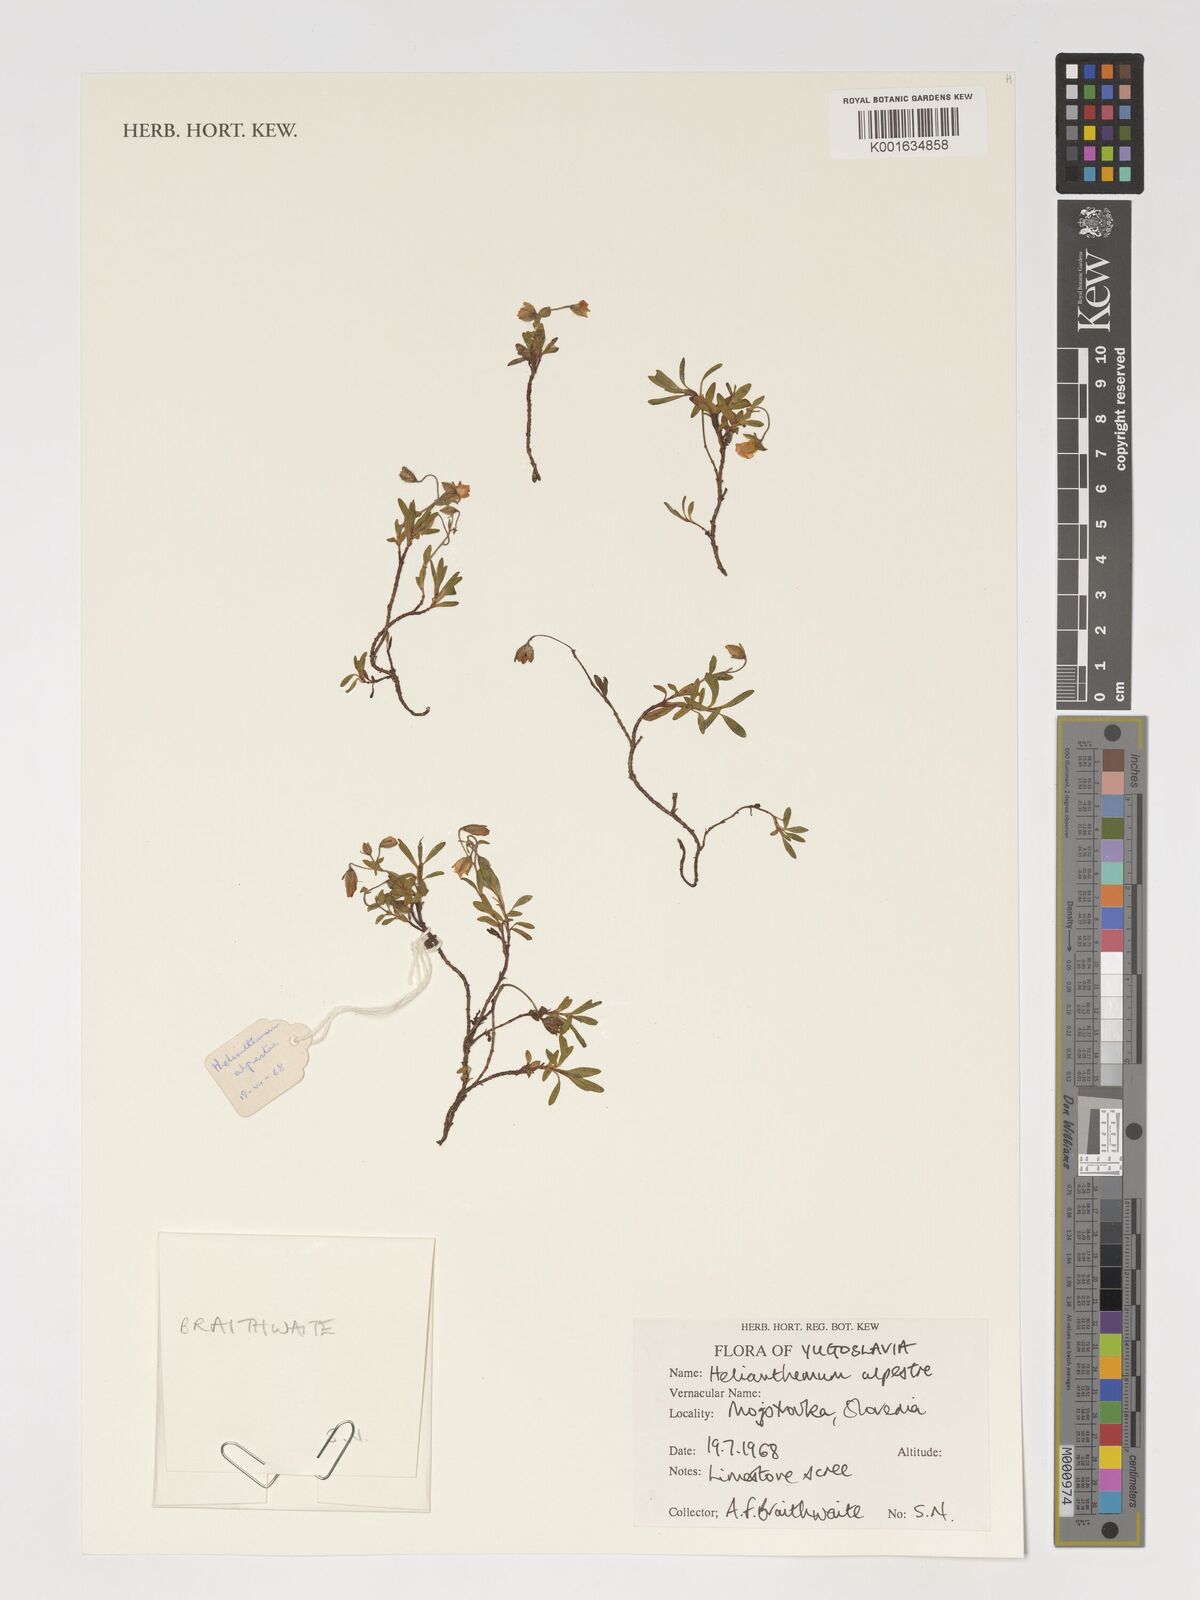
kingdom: Plantae
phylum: Tracheophyta
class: Magnoliopsida
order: Malvales
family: Cistaceae
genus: Helianthemum
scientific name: Helianthemum canum
